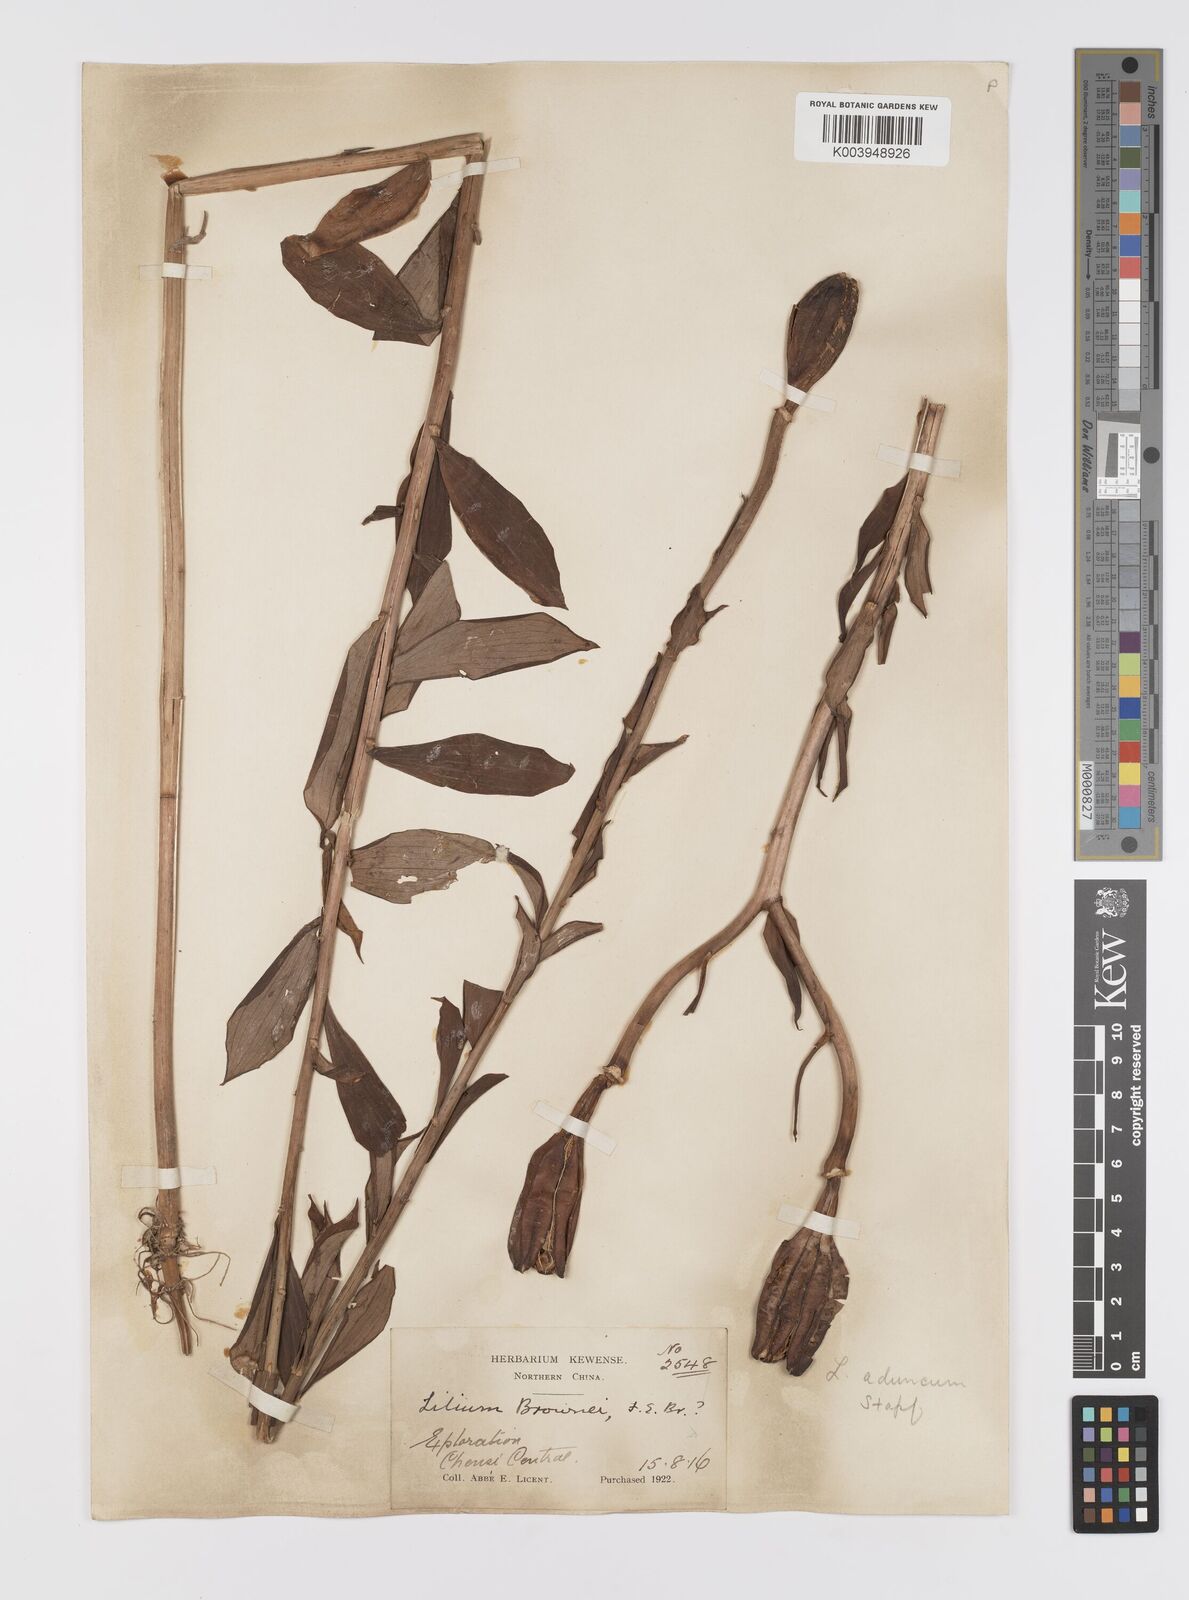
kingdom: Plantae
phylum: Tracheophyta
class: Liliopsida
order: Liliales
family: Liliaceae
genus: Lilium
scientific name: Lilium brownii
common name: Brown's lily
